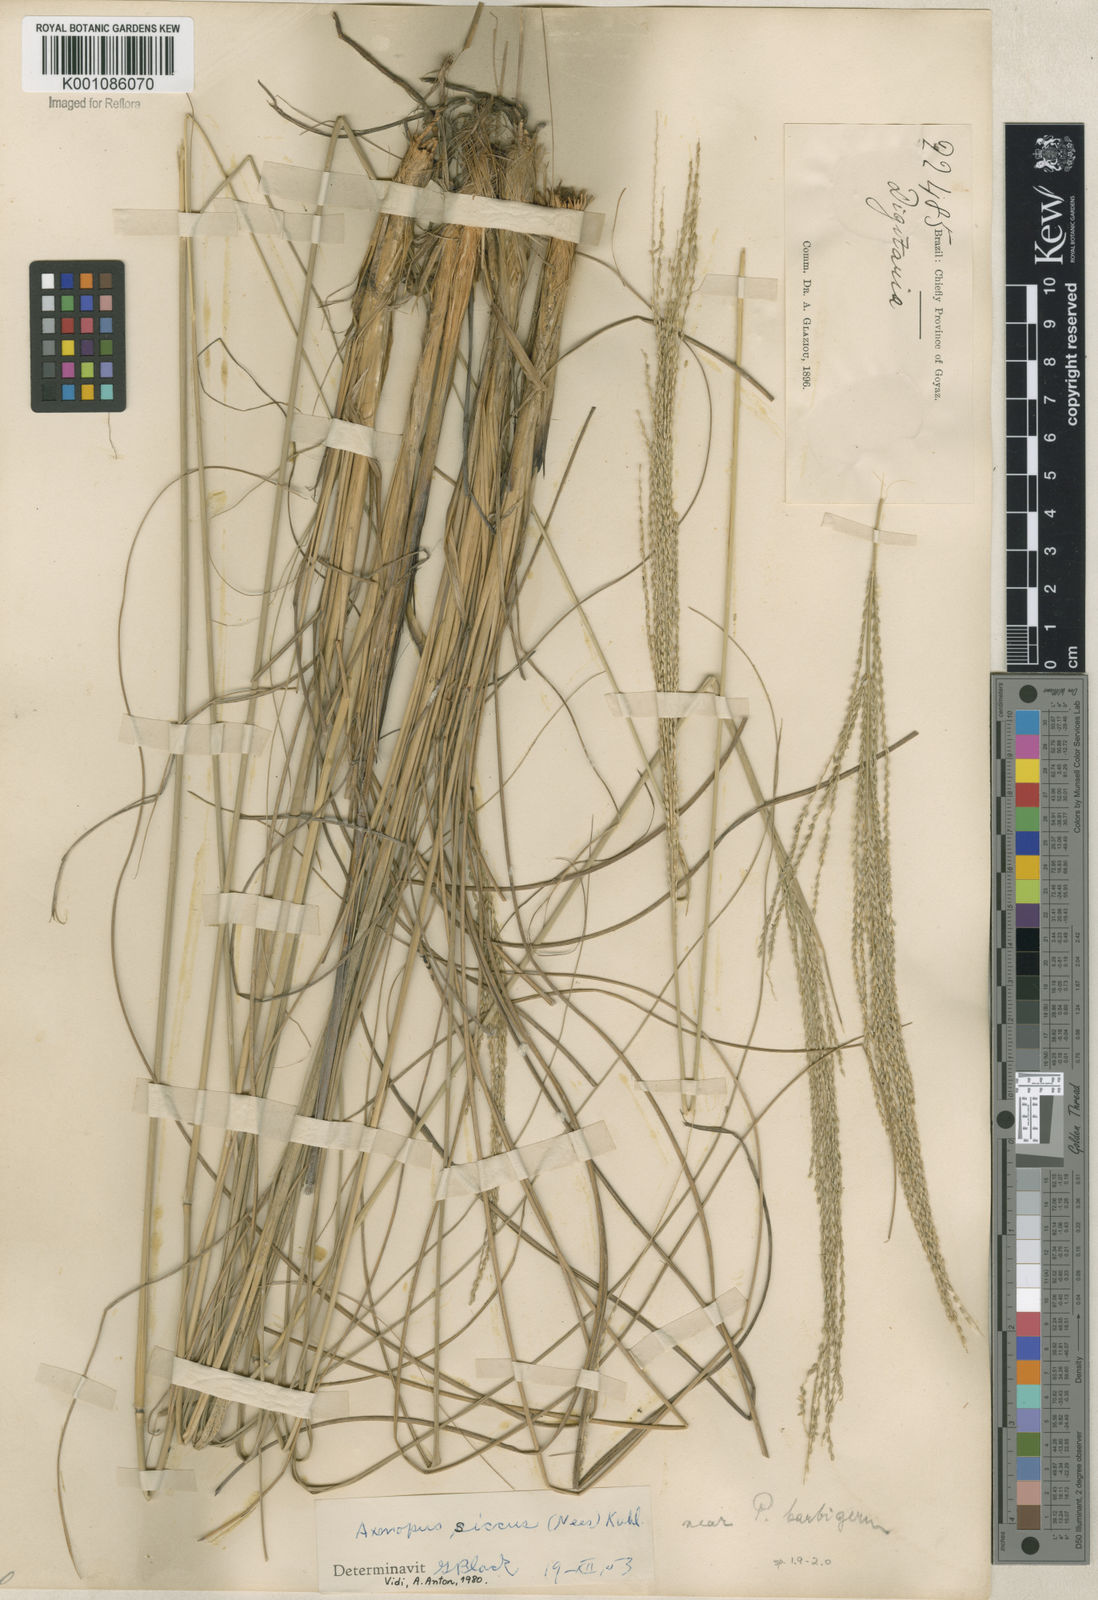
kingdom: Plantae
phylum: Tracheophyta
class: Liliopsida
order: Poales
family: Poaceae
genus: Axonopus
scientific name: Axonopus siccus
